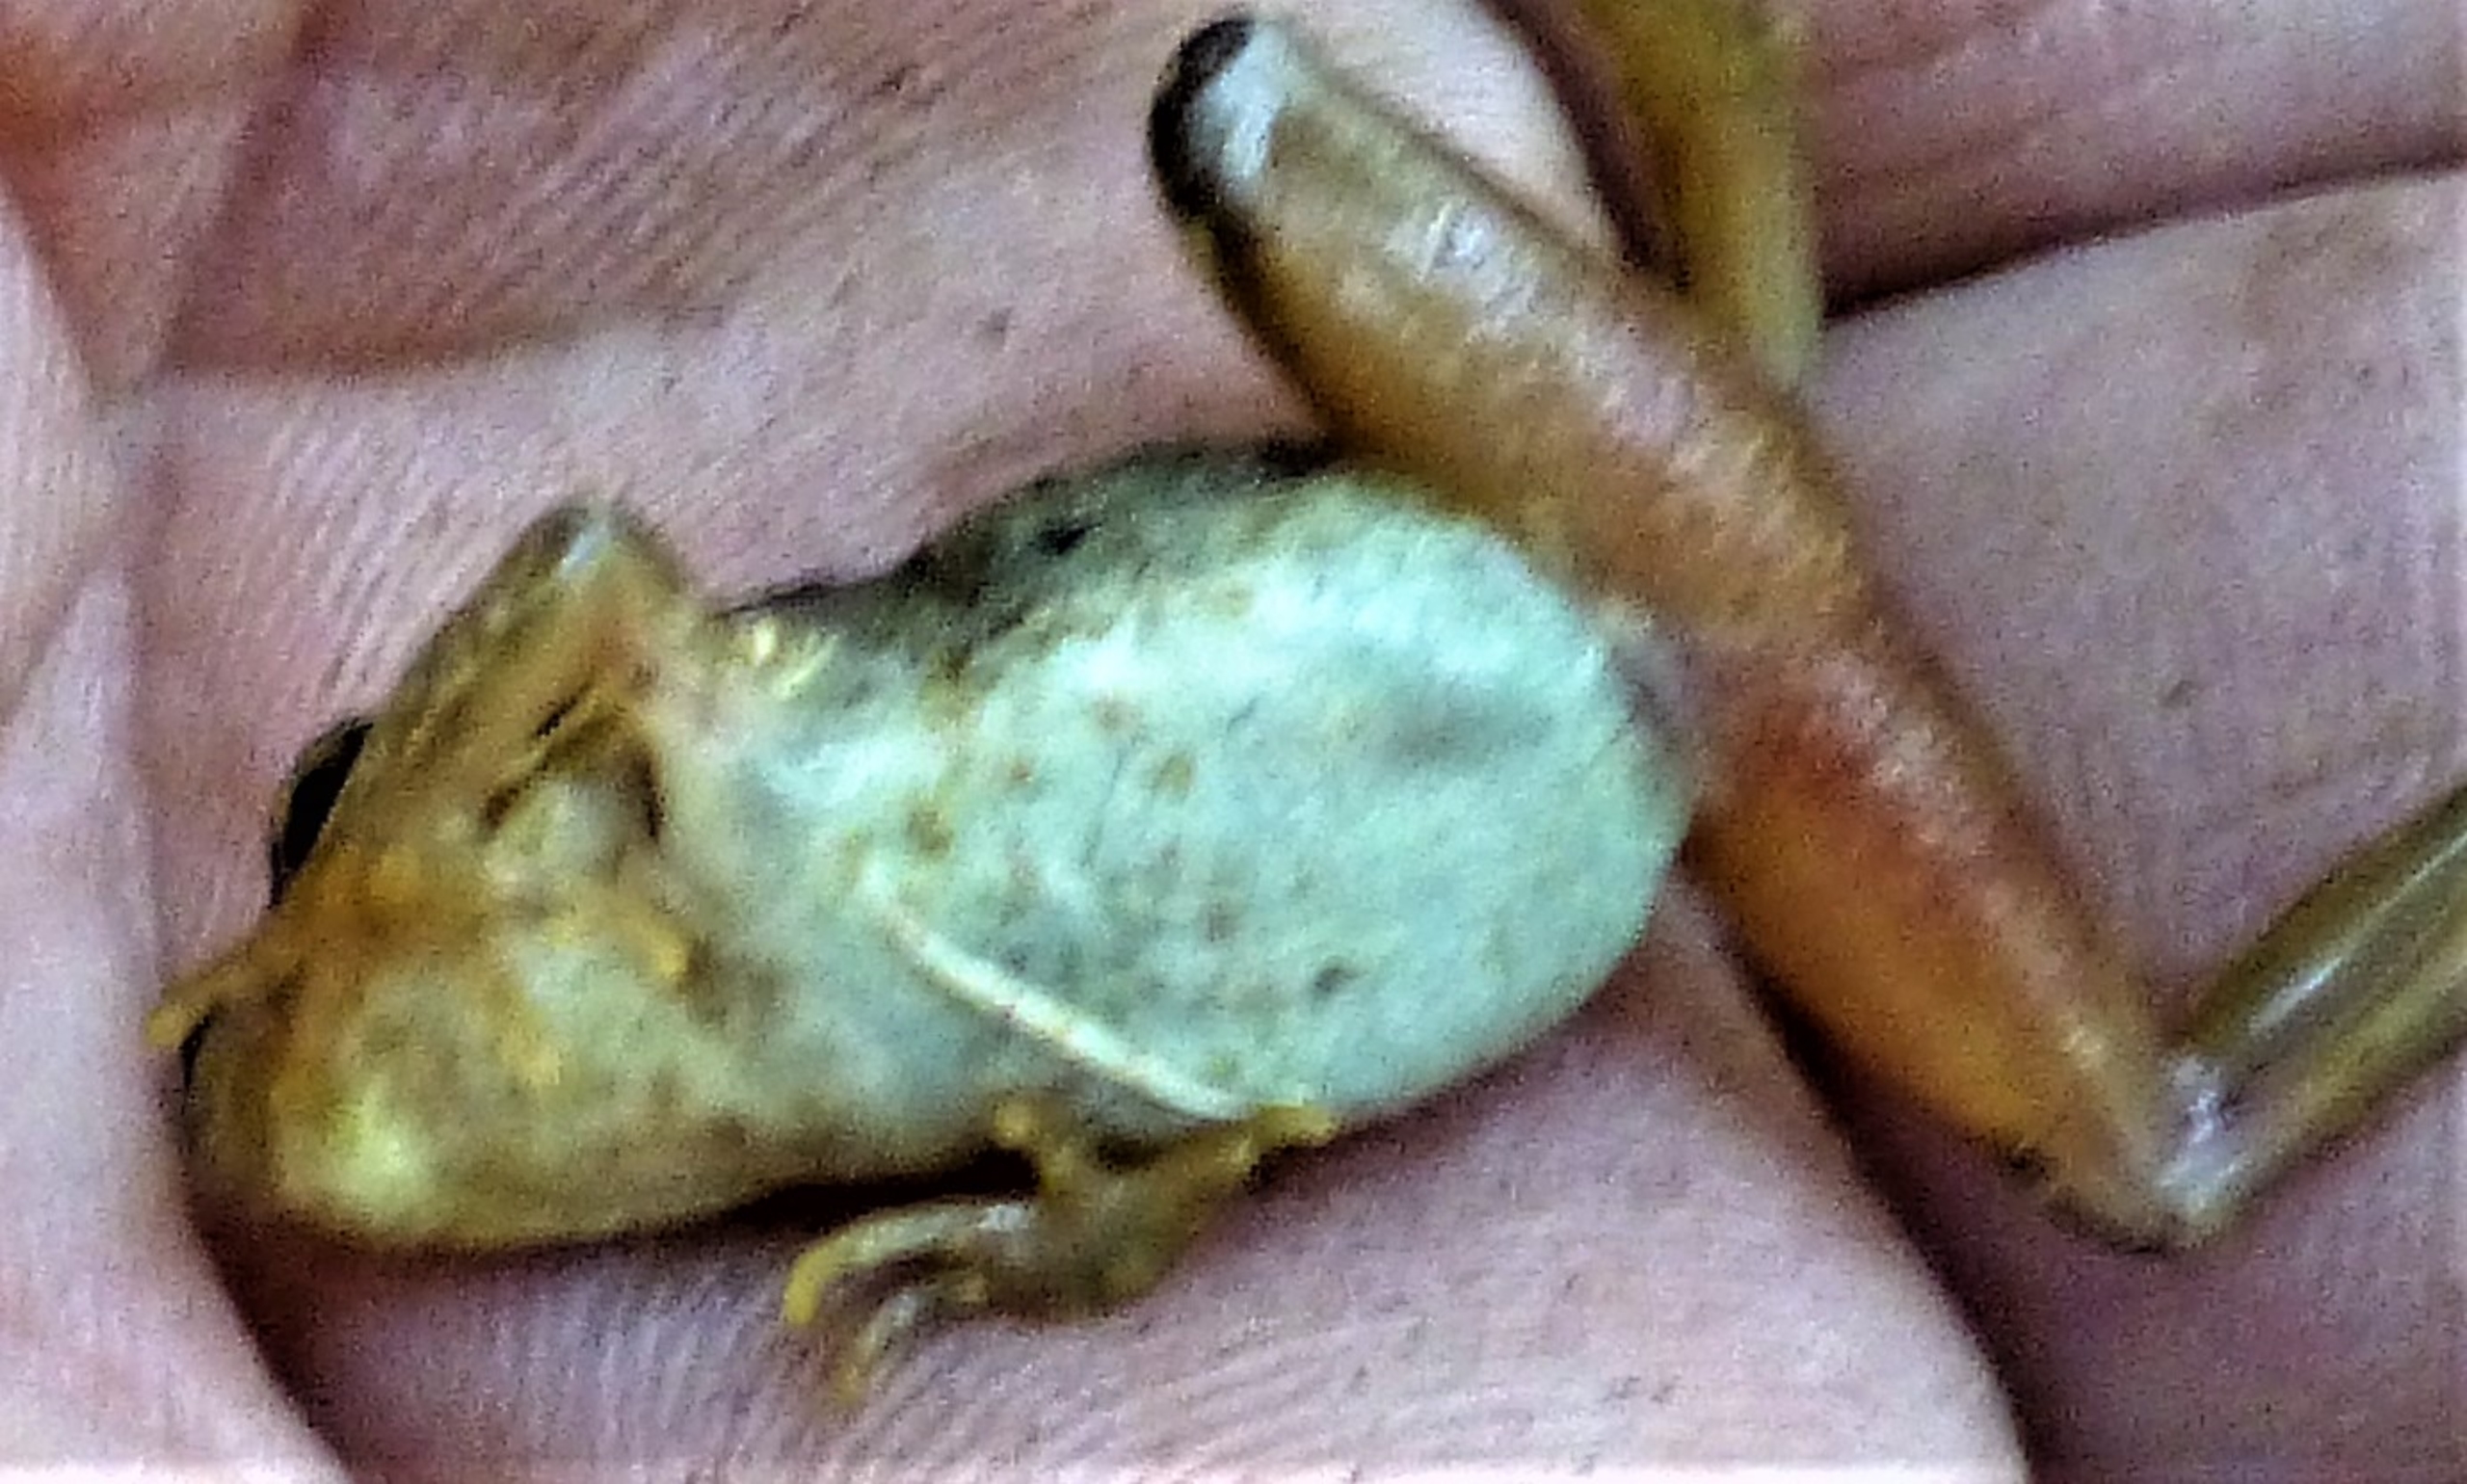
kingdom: Animalia
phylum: Chordata
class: Amphibia
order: Anura
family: Ranidae
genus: Rana
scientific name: Rana temporaria
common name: Butsnudet frø
